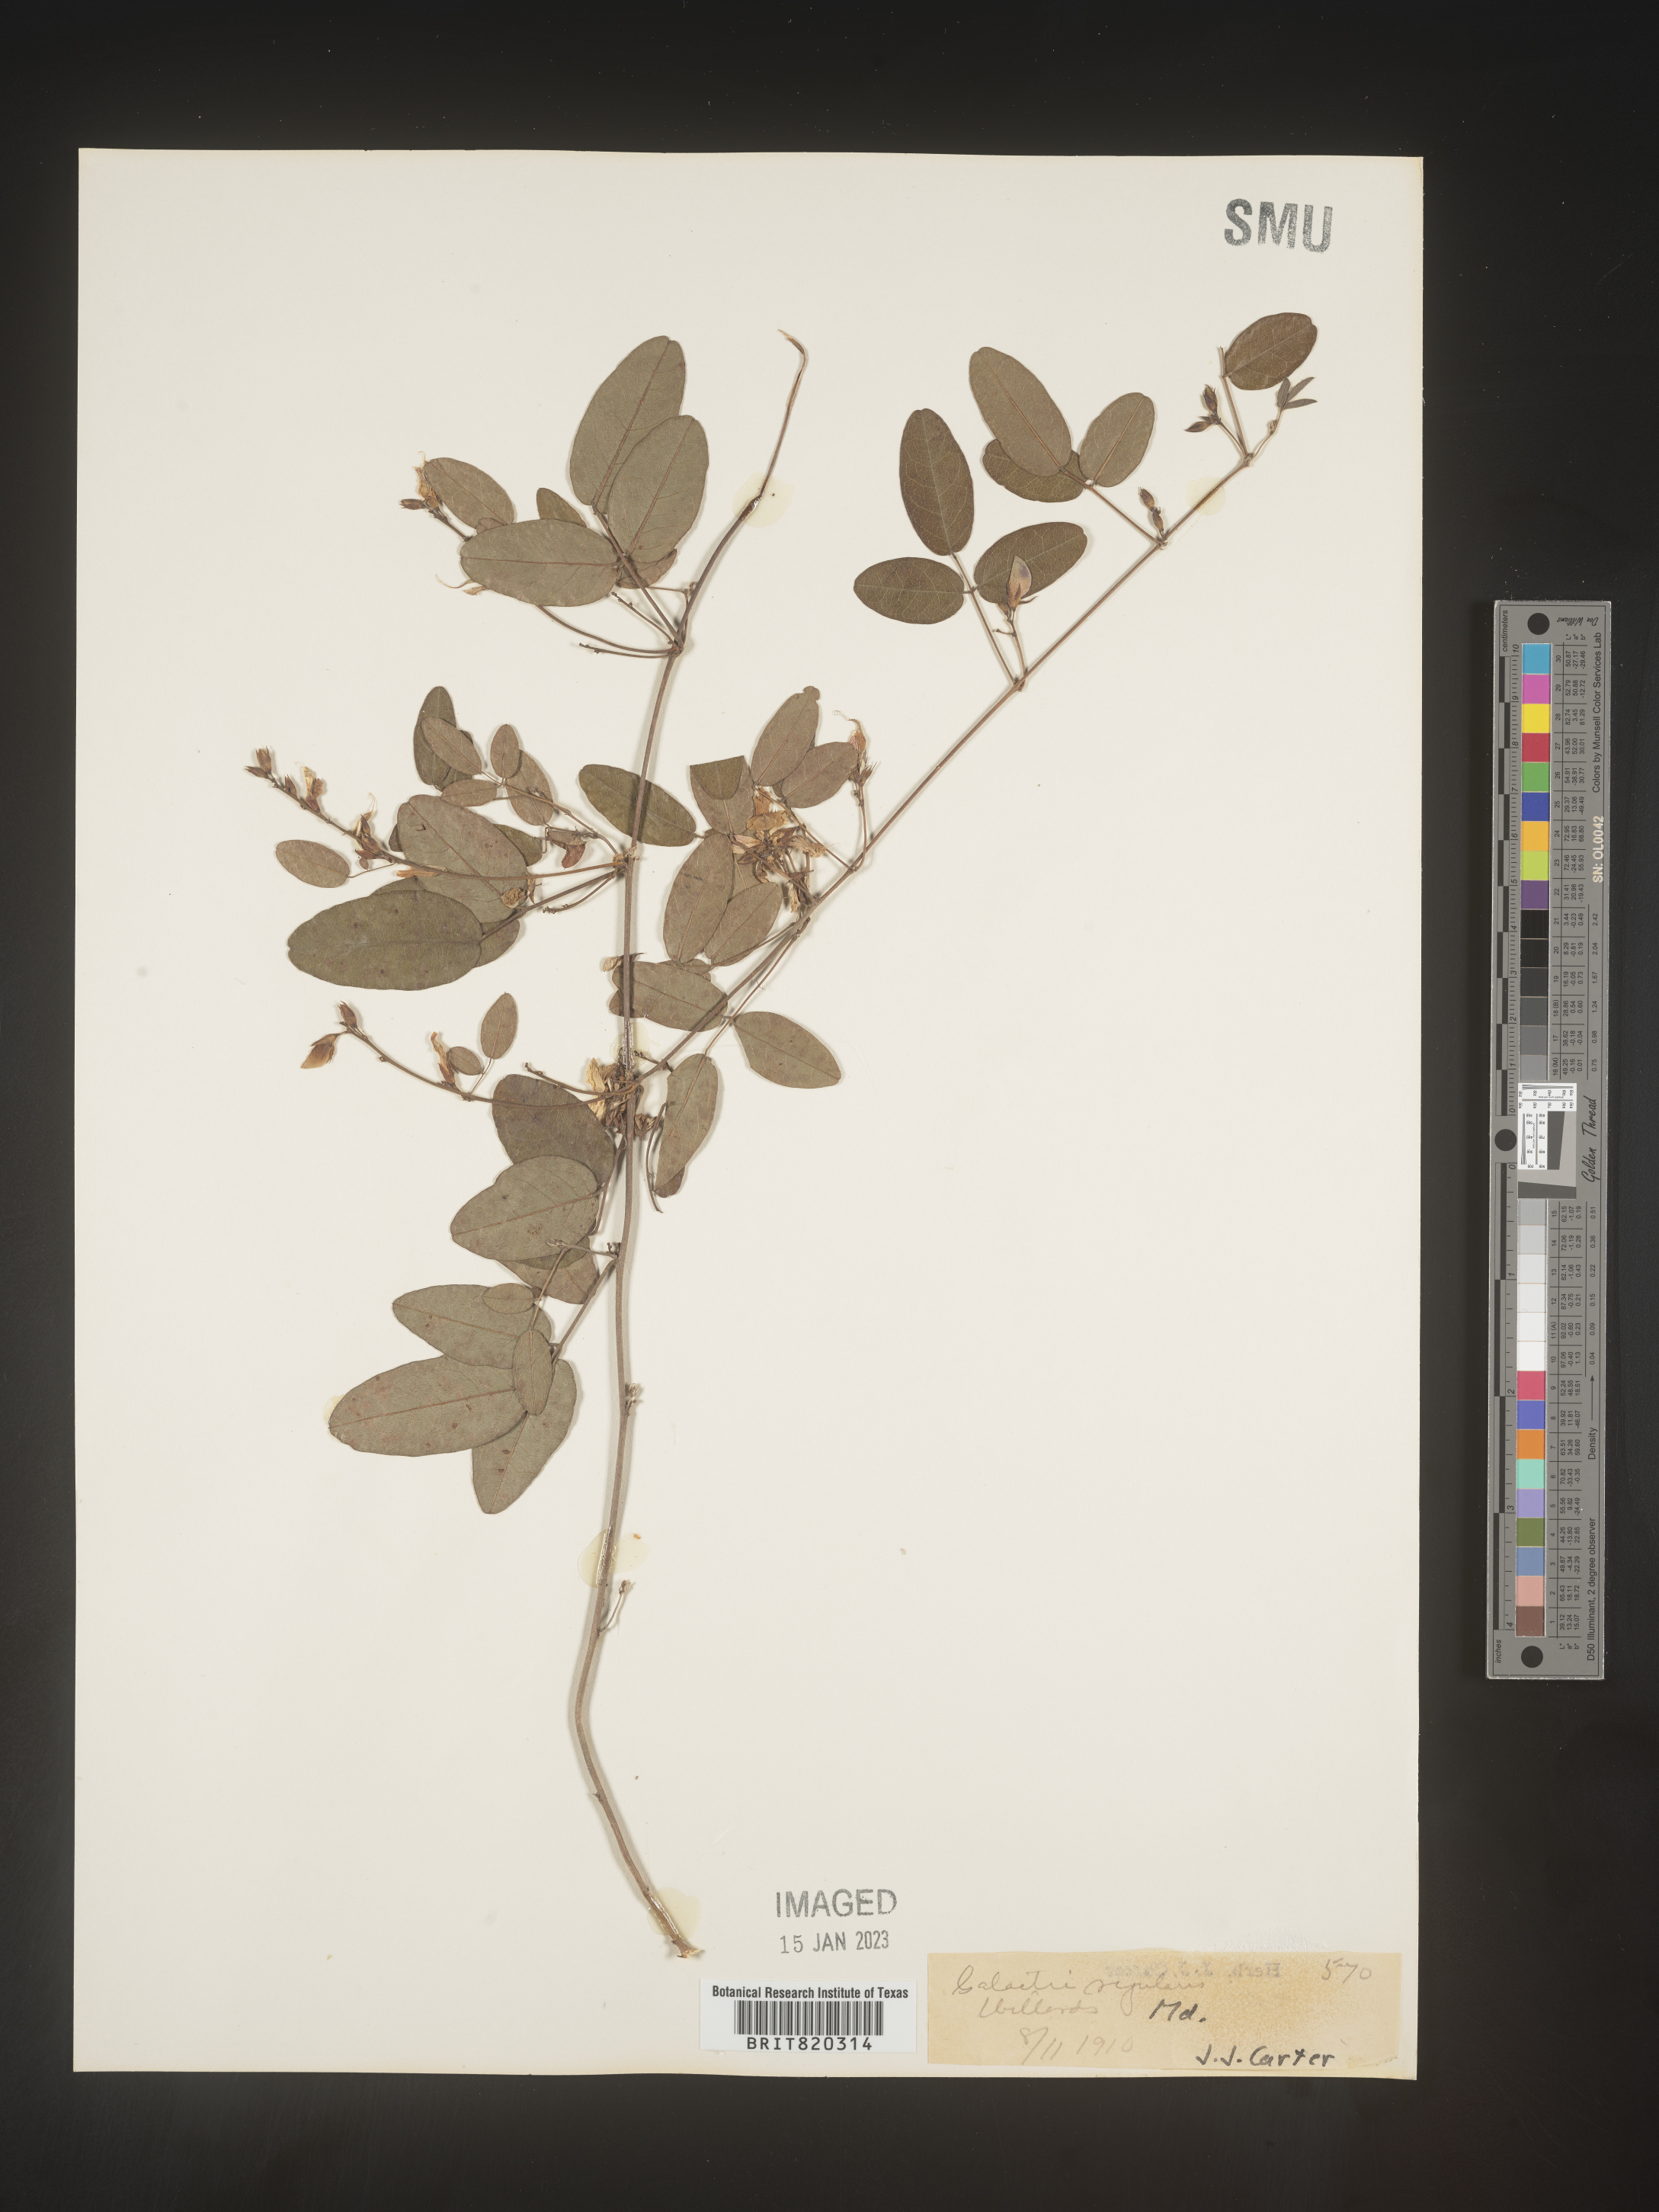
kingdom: Plantae
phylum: Tracheophyta
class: Magnoliopsida
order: Fabales
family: Fabaceae
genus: Galactia
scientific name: Galactia regularis
